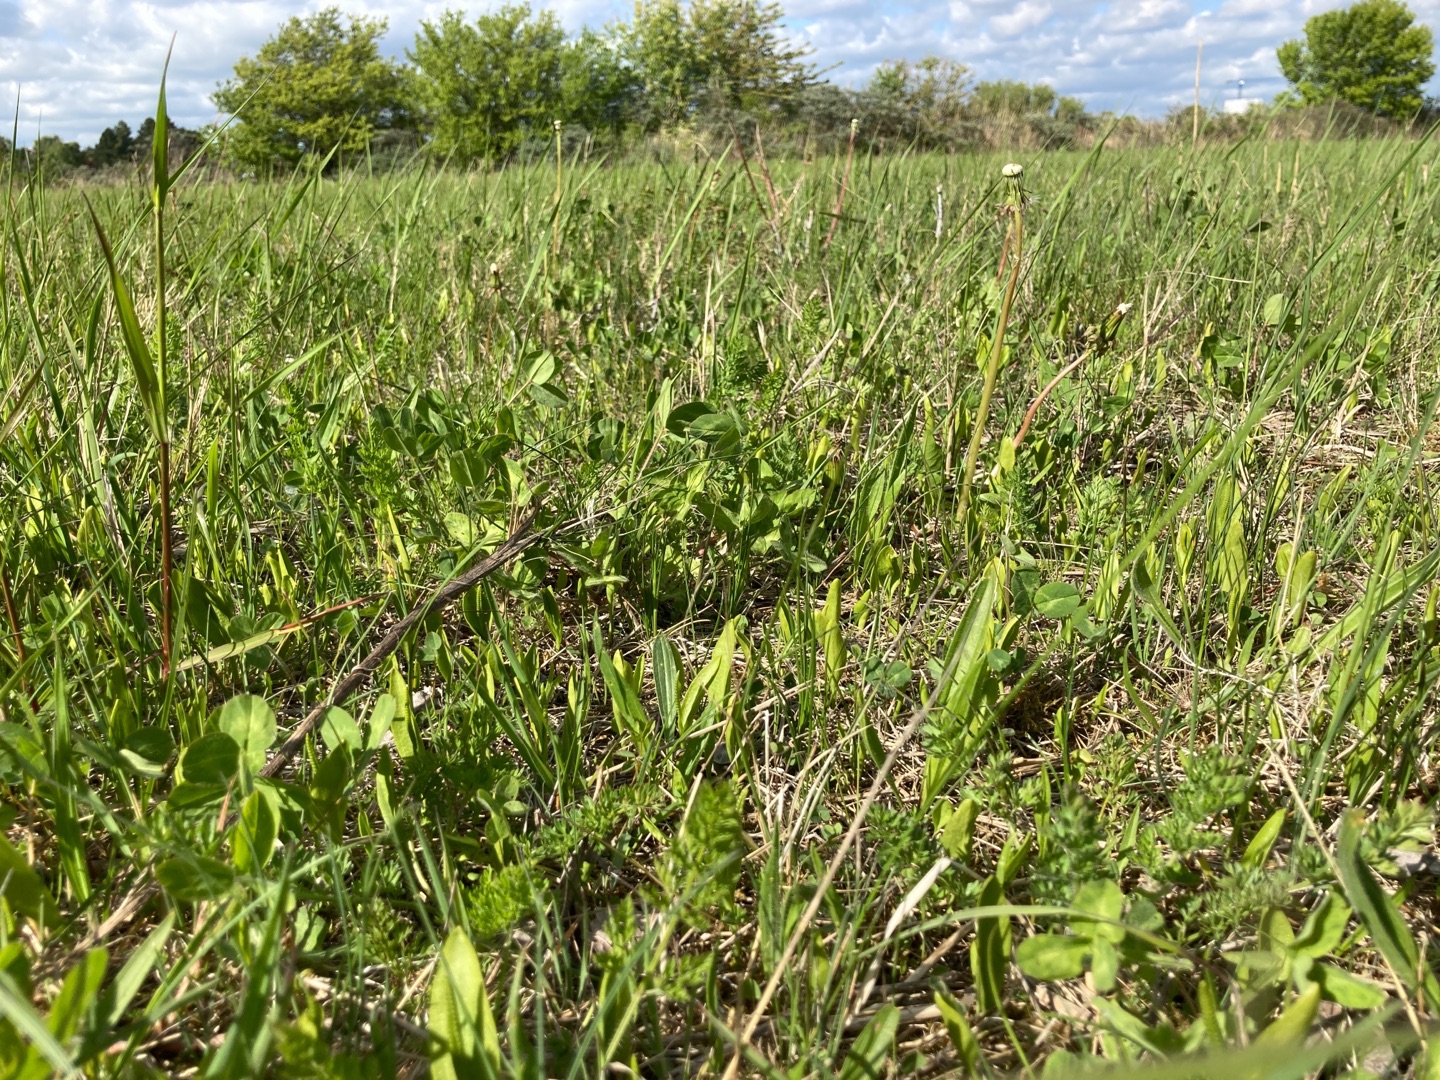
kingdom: Plantae
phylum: Tracheophyta
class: Polypodiopsida
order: Ophioglossales
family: Ophioglossaceae
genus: Ophioglossum
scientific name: Ophioglossum vulgatum
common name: Slangetunge
